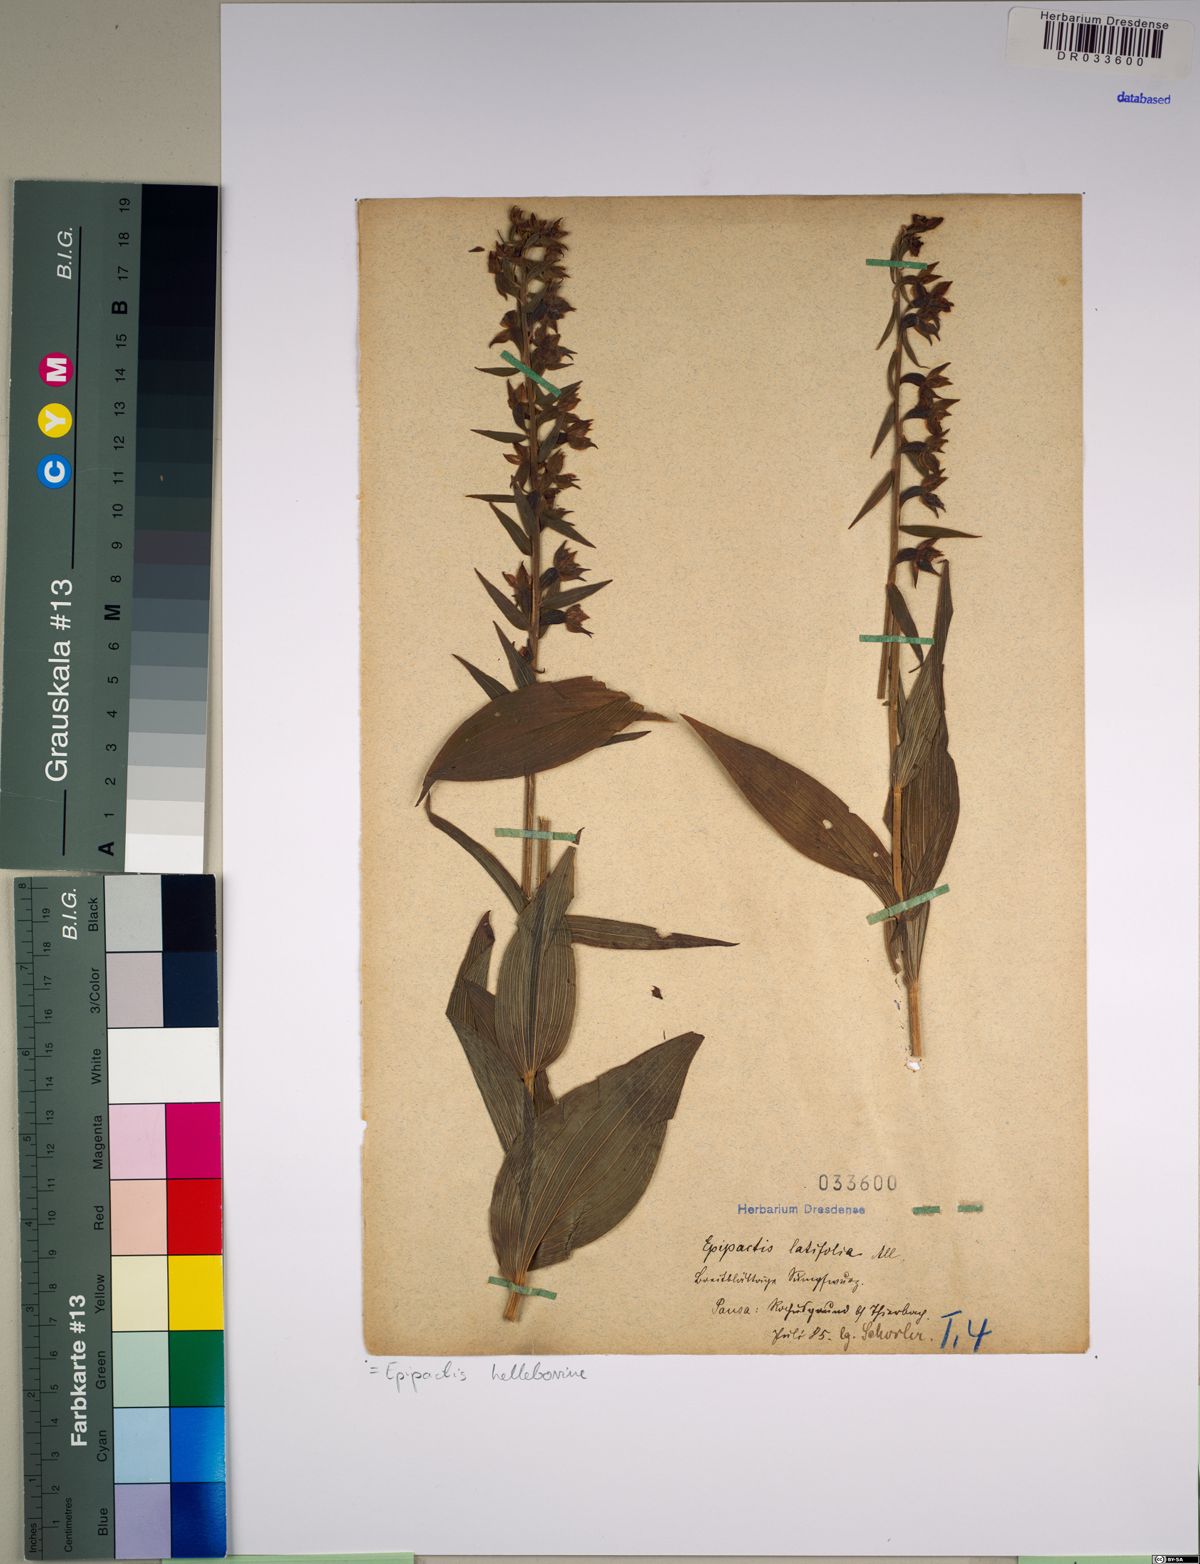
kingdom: Plantae
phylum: Tracheophyta
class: Liliopsida
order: Asparagales
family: Orchidaceae
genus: Epipactis
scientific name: Epipactis helleborine
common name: Broad-leaved helleborine
